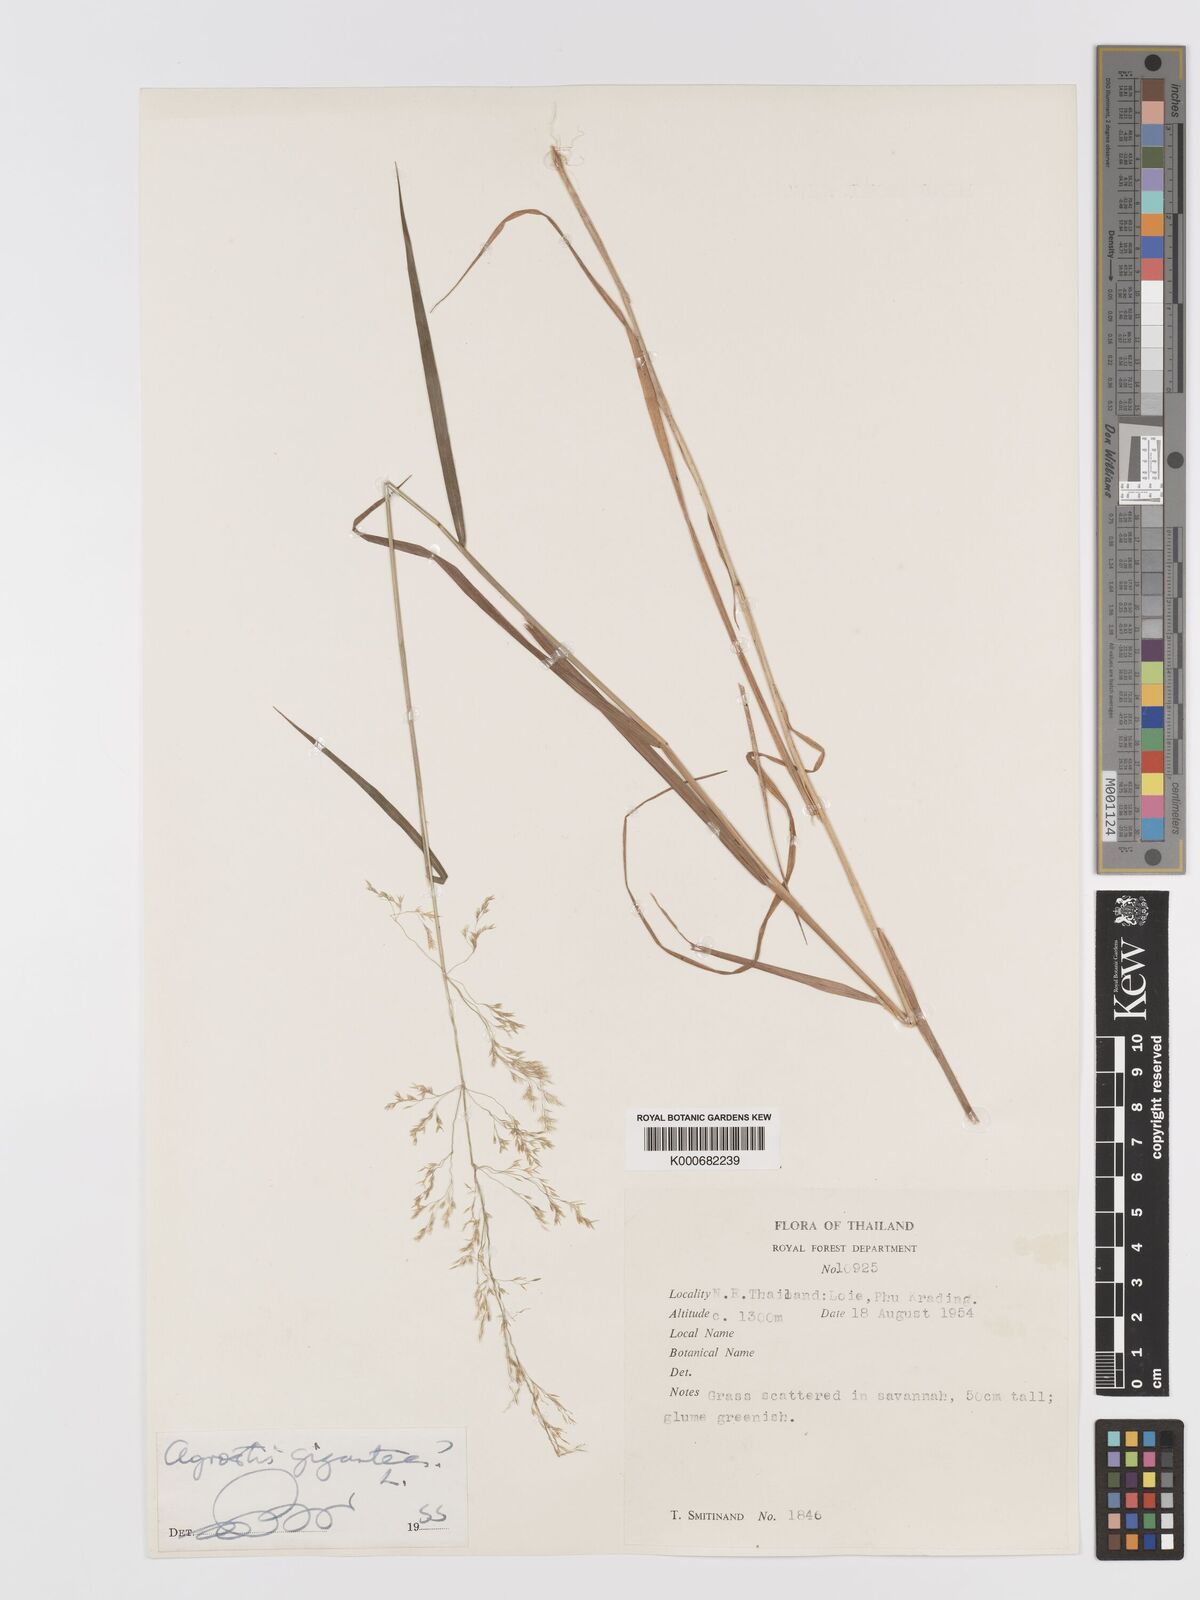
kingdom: Plantae
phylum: Tracheophyta
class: Liliopsida
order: Poales
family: Poaceae
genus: Agrostis
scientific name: Agrostis
